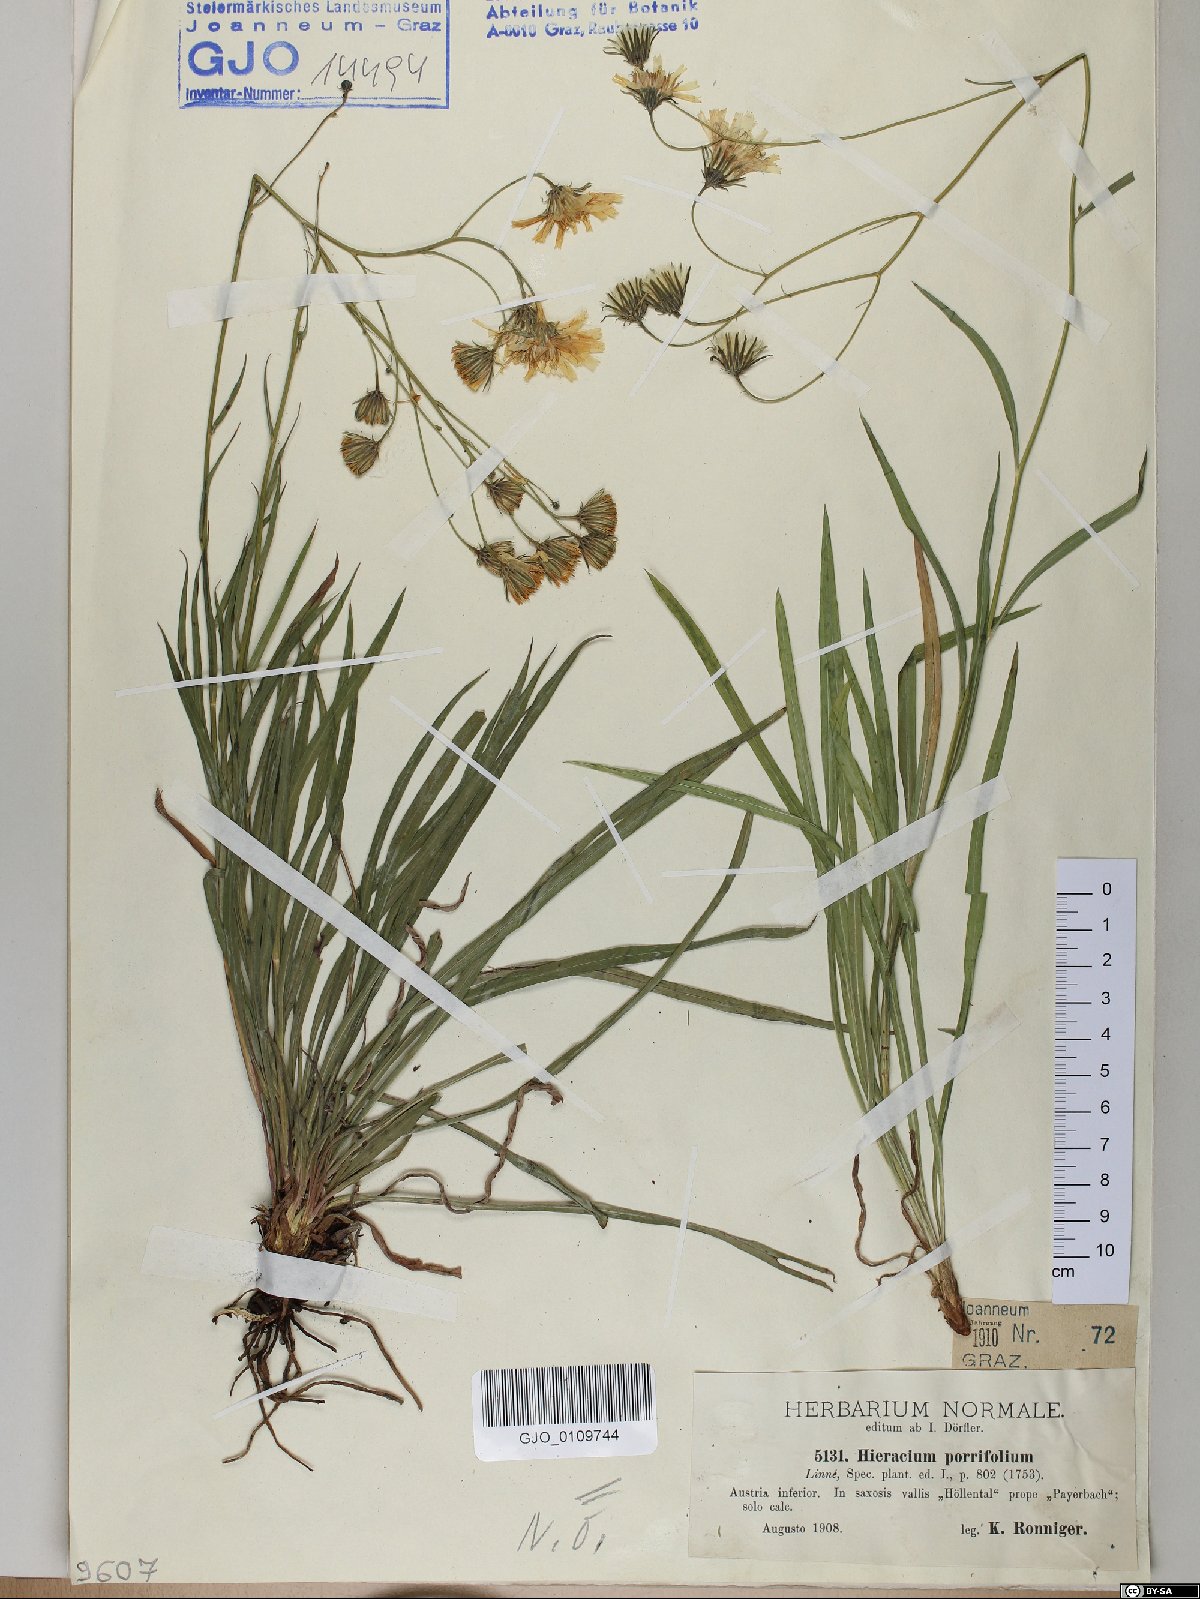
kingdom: Plantae
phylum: Tracheophyta
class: Magnoliopsida
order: Asterales
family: Asteraceae
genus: Hieracium
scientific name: Hieracium porrifolium
